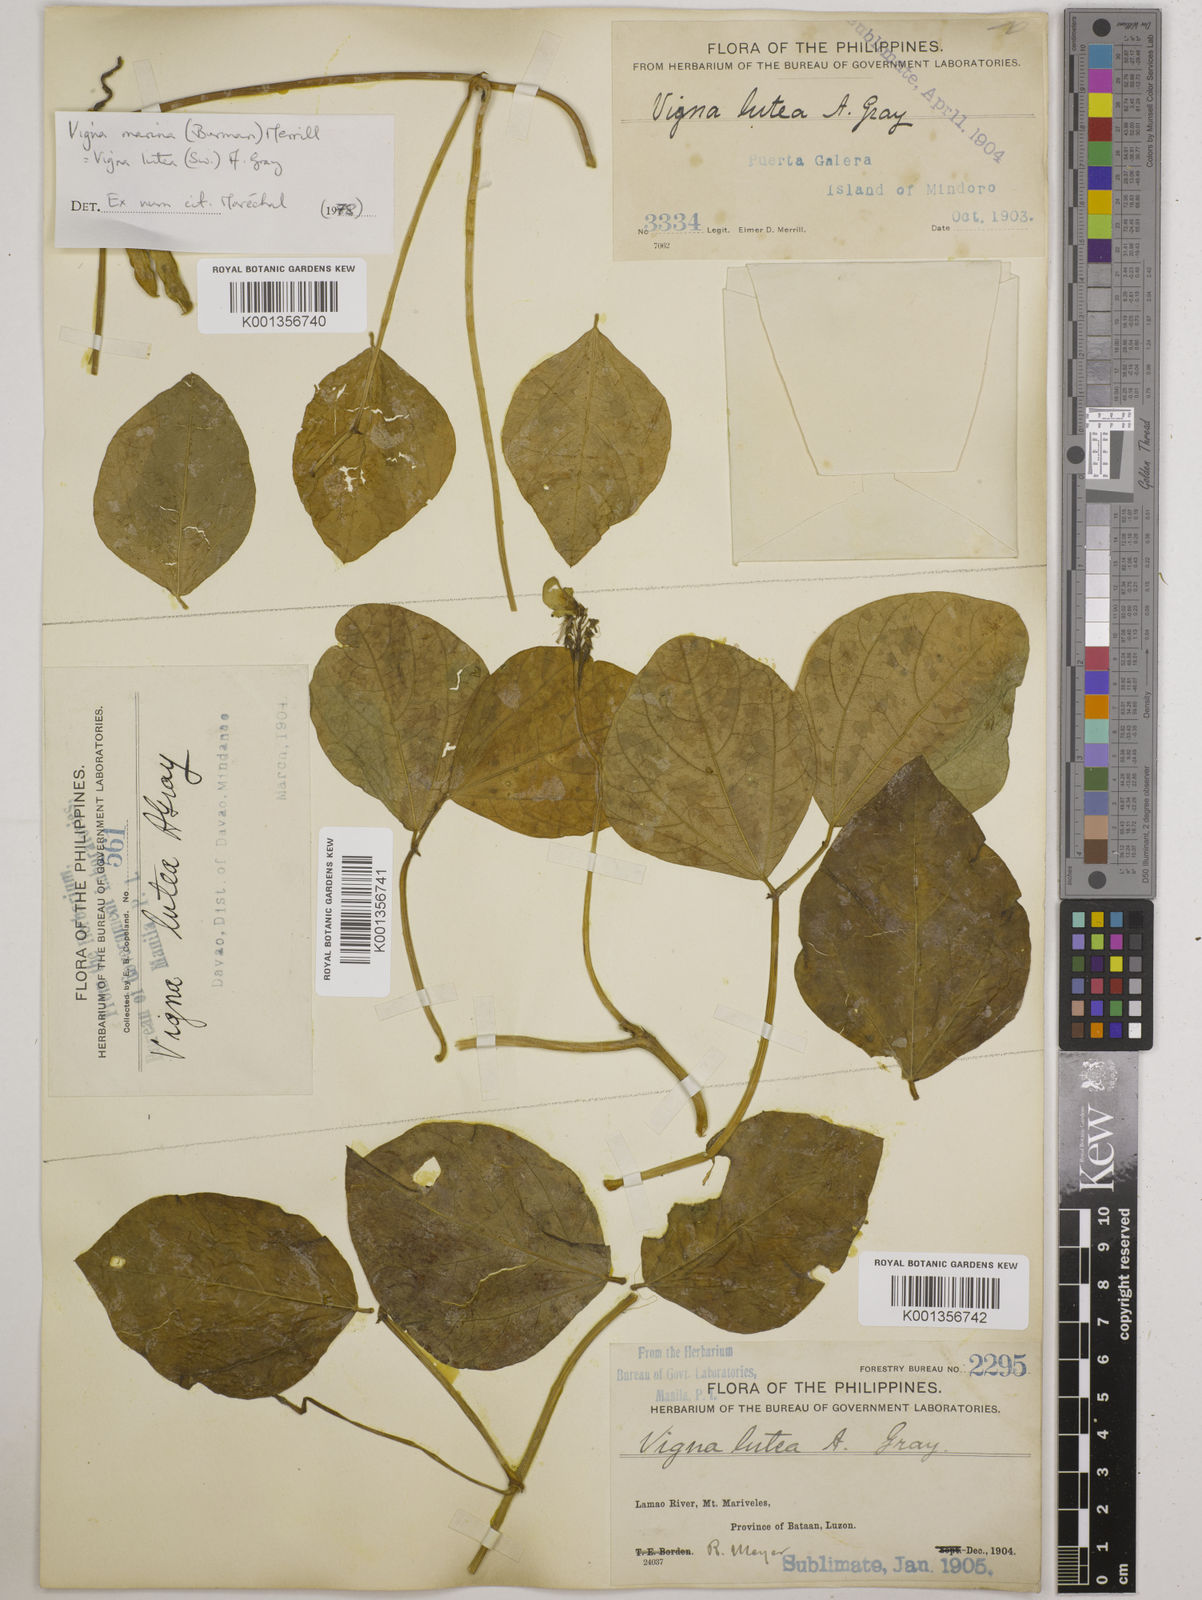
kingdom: Plantae
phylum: Tracheophyta
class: Magnoliopsida
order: Fabales
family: Fabaceae
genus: Vigna
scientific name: Vigna marina
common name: Dune-bean
